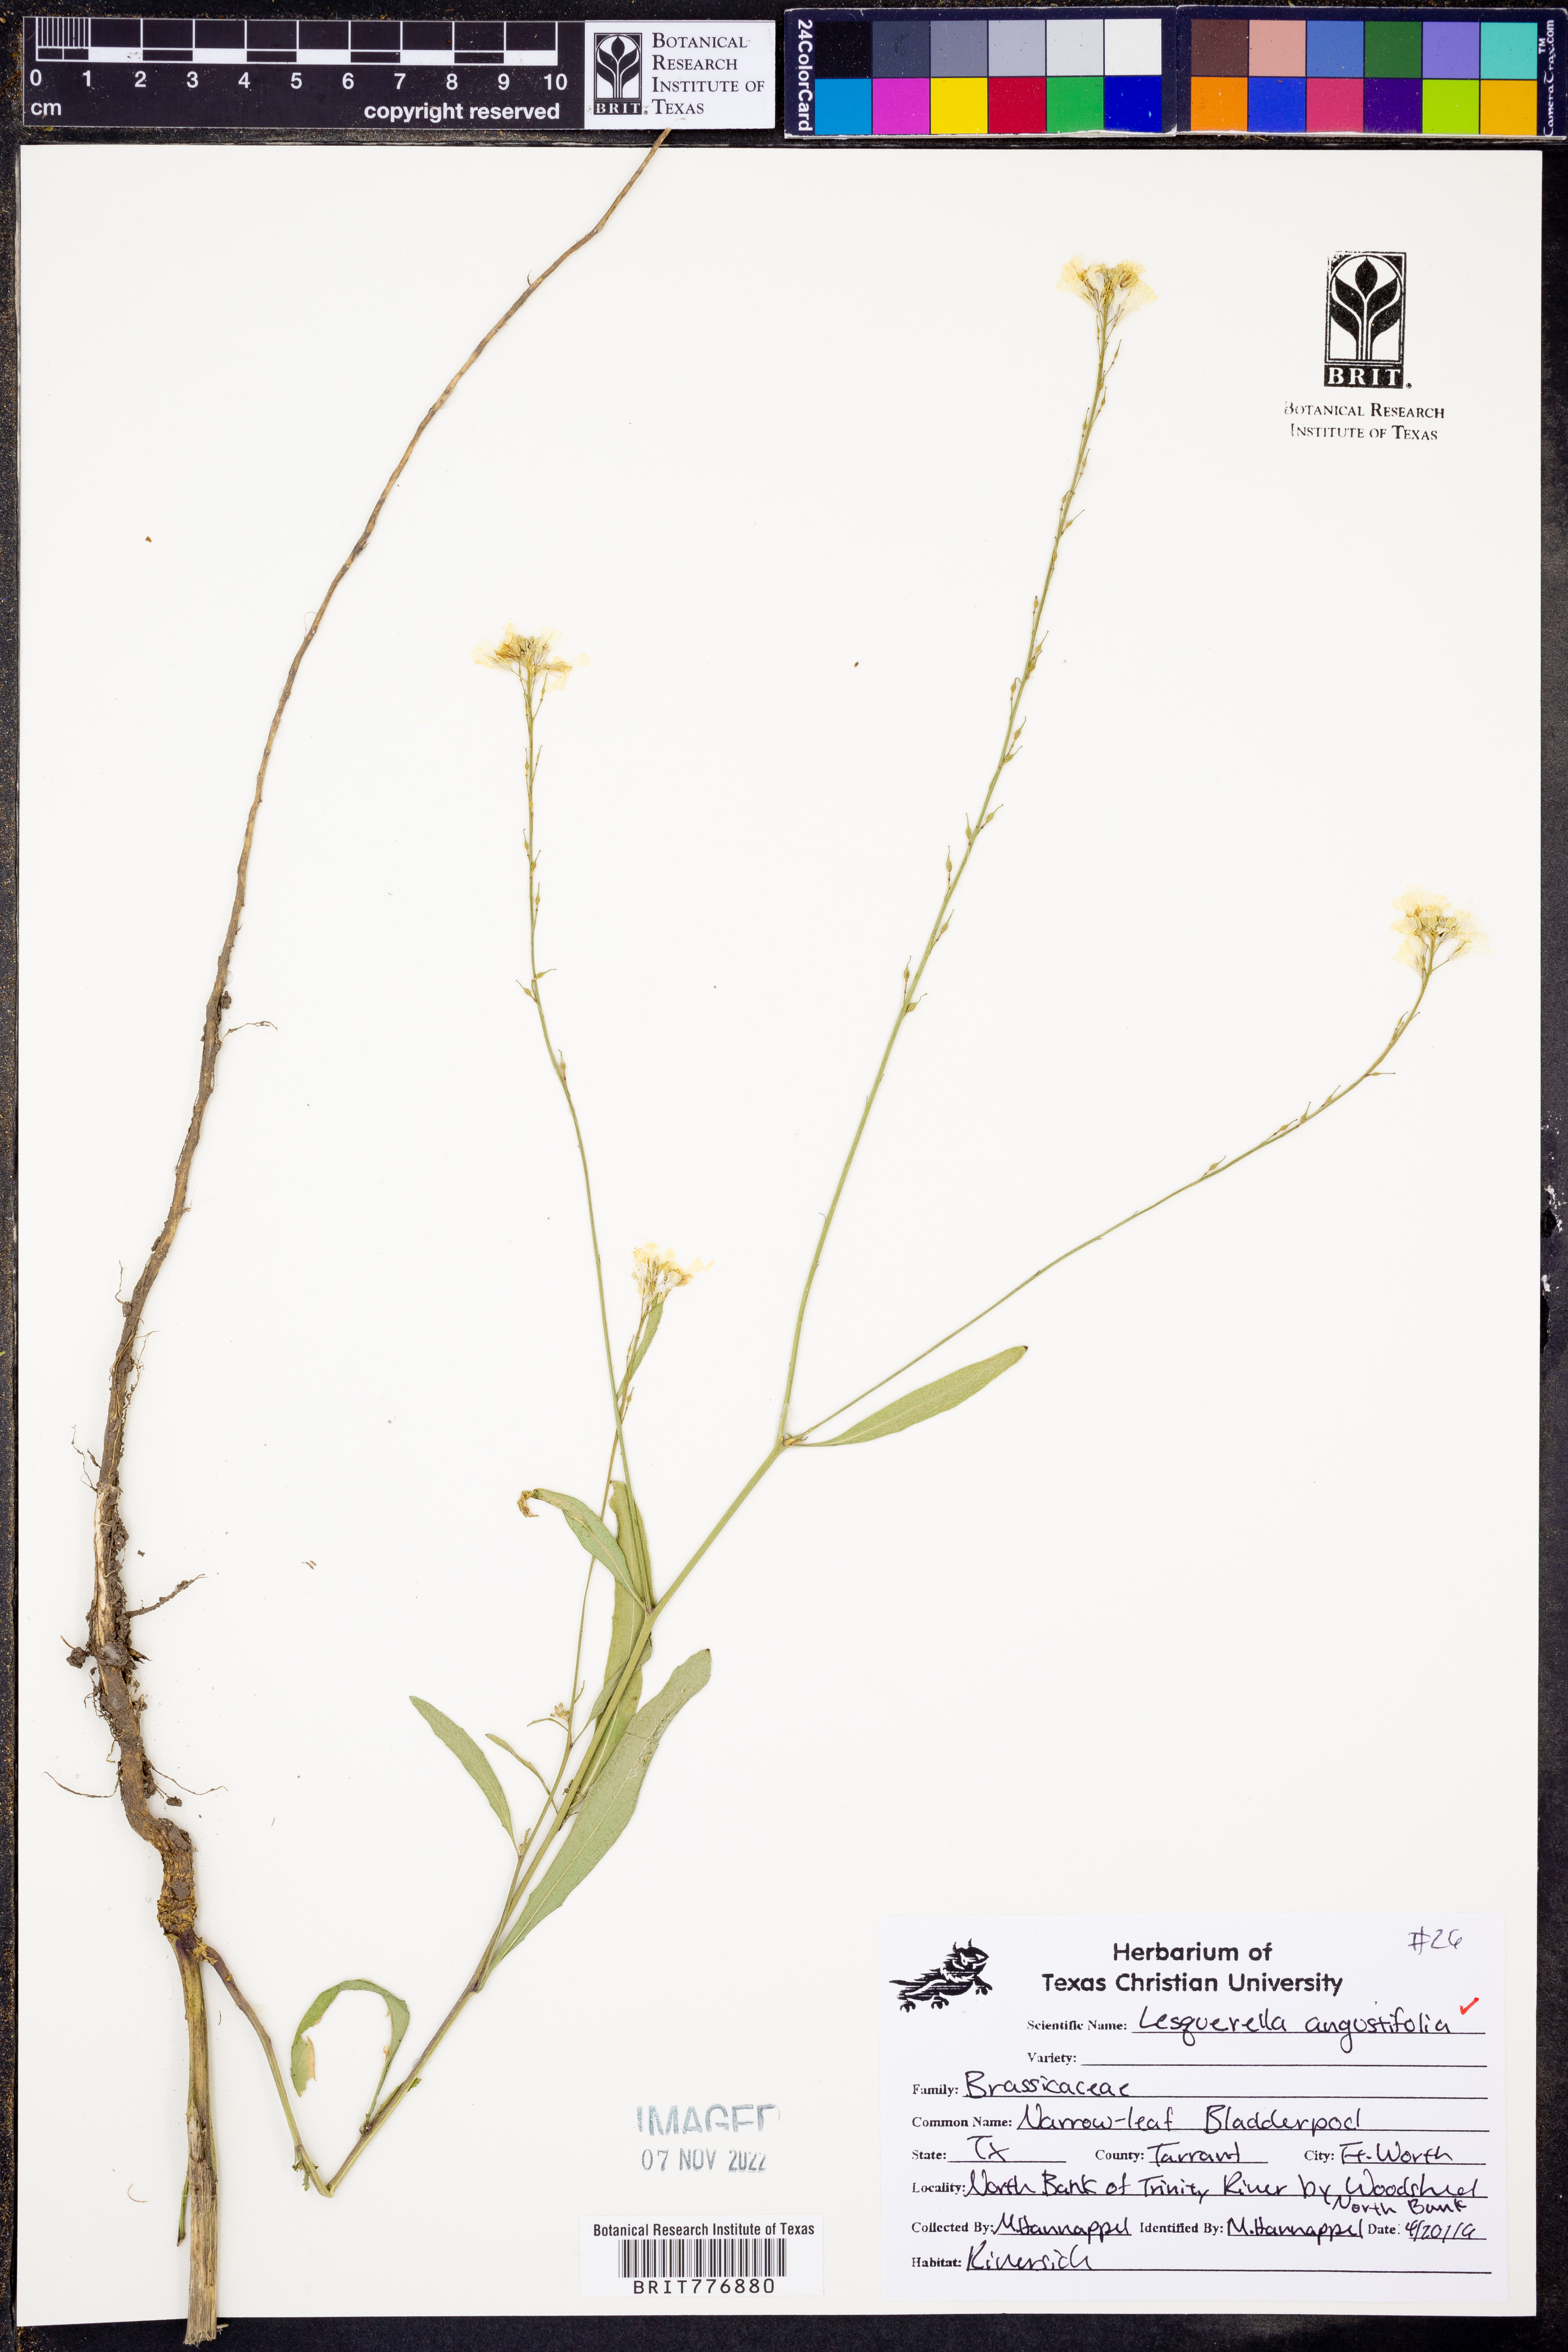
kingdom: Plantae
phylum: Tracheophyta
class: Magnoliopsida
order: Brassicales
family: Brassicaceae
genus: Physaria
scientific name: Physaria angustifolia
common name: Threadleaf bladderpod
